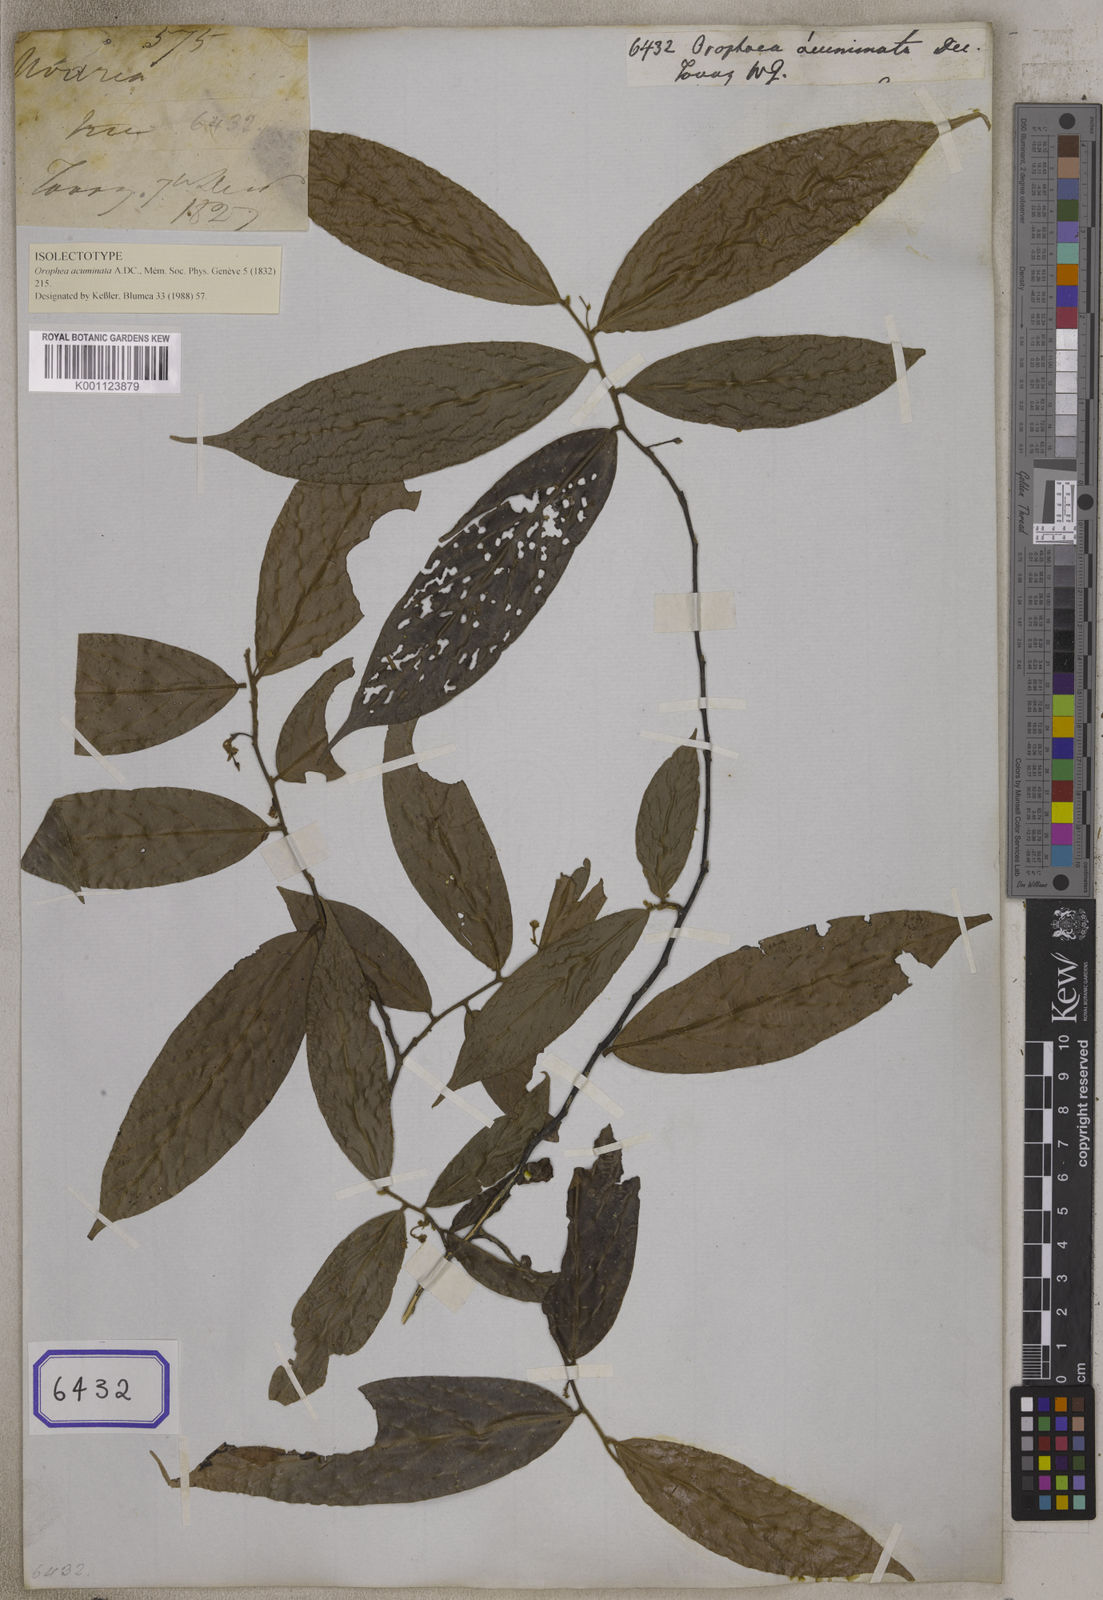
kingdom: Plantae
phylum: Tracheophyta
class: Magnoliopsida
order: Magnoliales
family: Annonaceae
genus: Orophea
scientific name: Orophea acuminata
